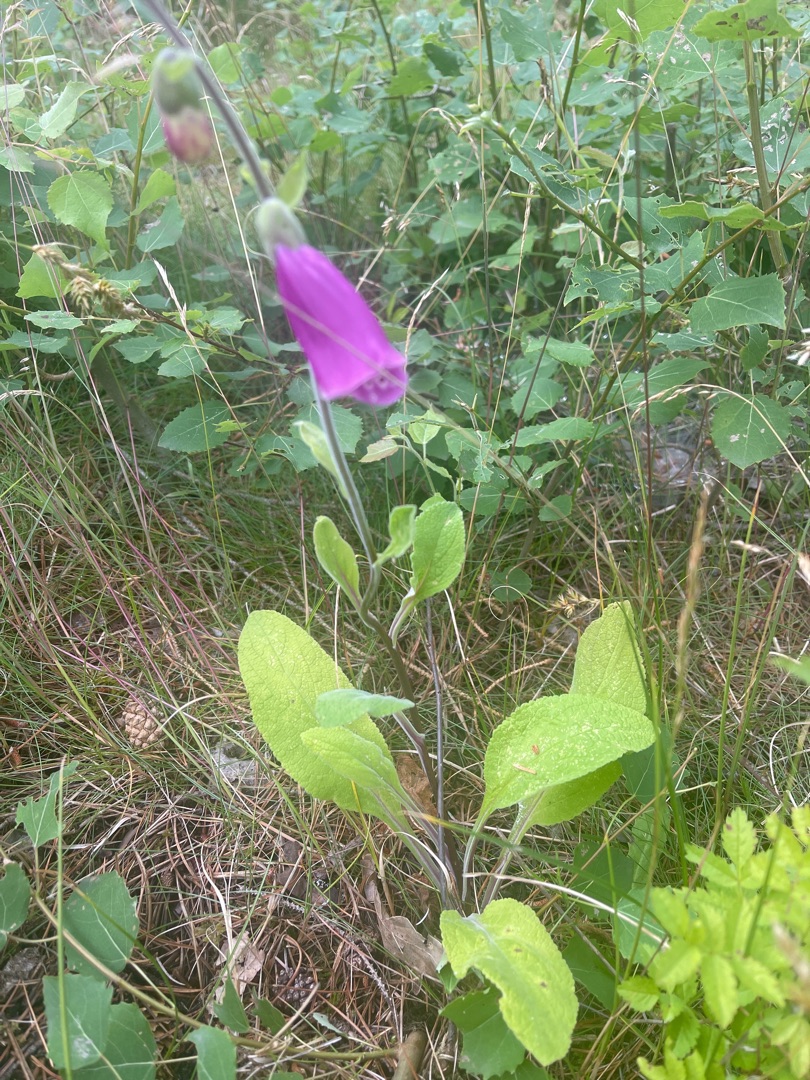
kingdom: Plantae
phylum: Tracheophyta
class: Magnoliopsida
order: Lamiales
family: Plantaginaceae
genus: Digitalis
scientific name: Digitalis purpurea
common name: Almindelig fingerbøl
